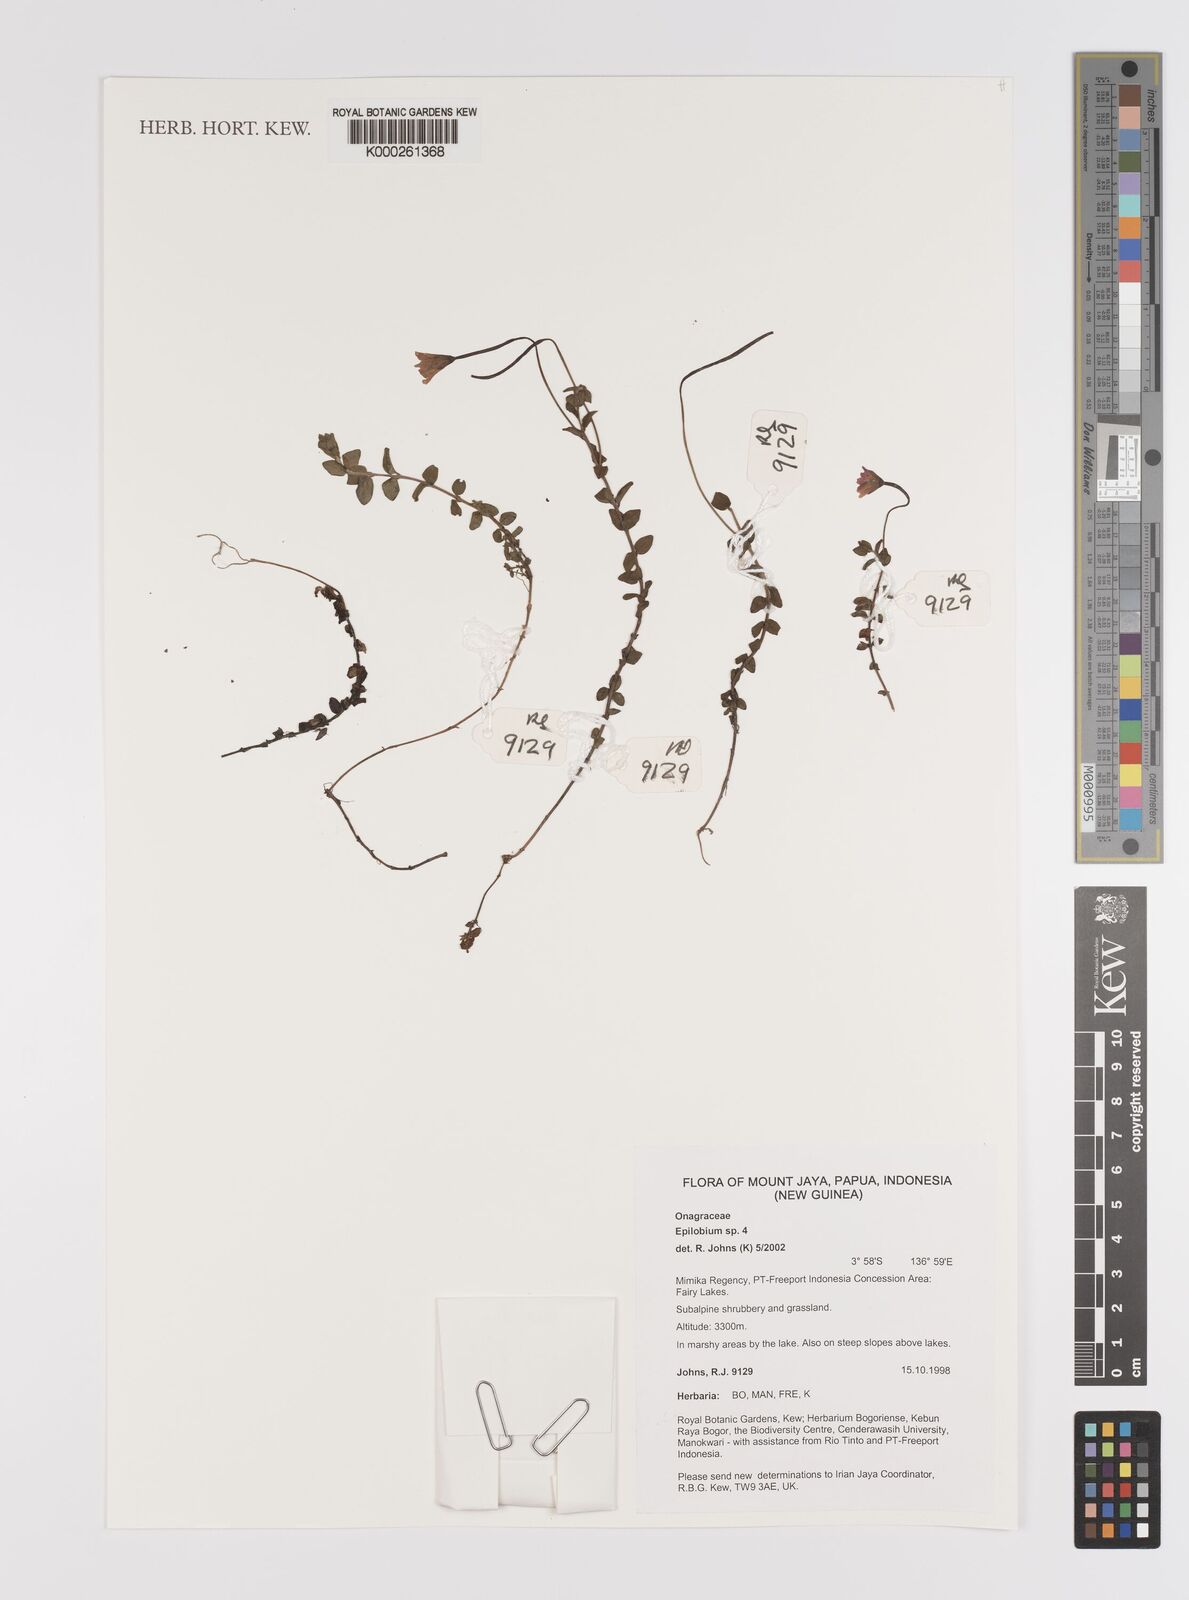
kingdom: Plantae
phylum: Tracheophyta
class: Magnoliopsida
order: Myrtales
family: Onagraceae
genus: Epilobium
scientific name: Epilobium
